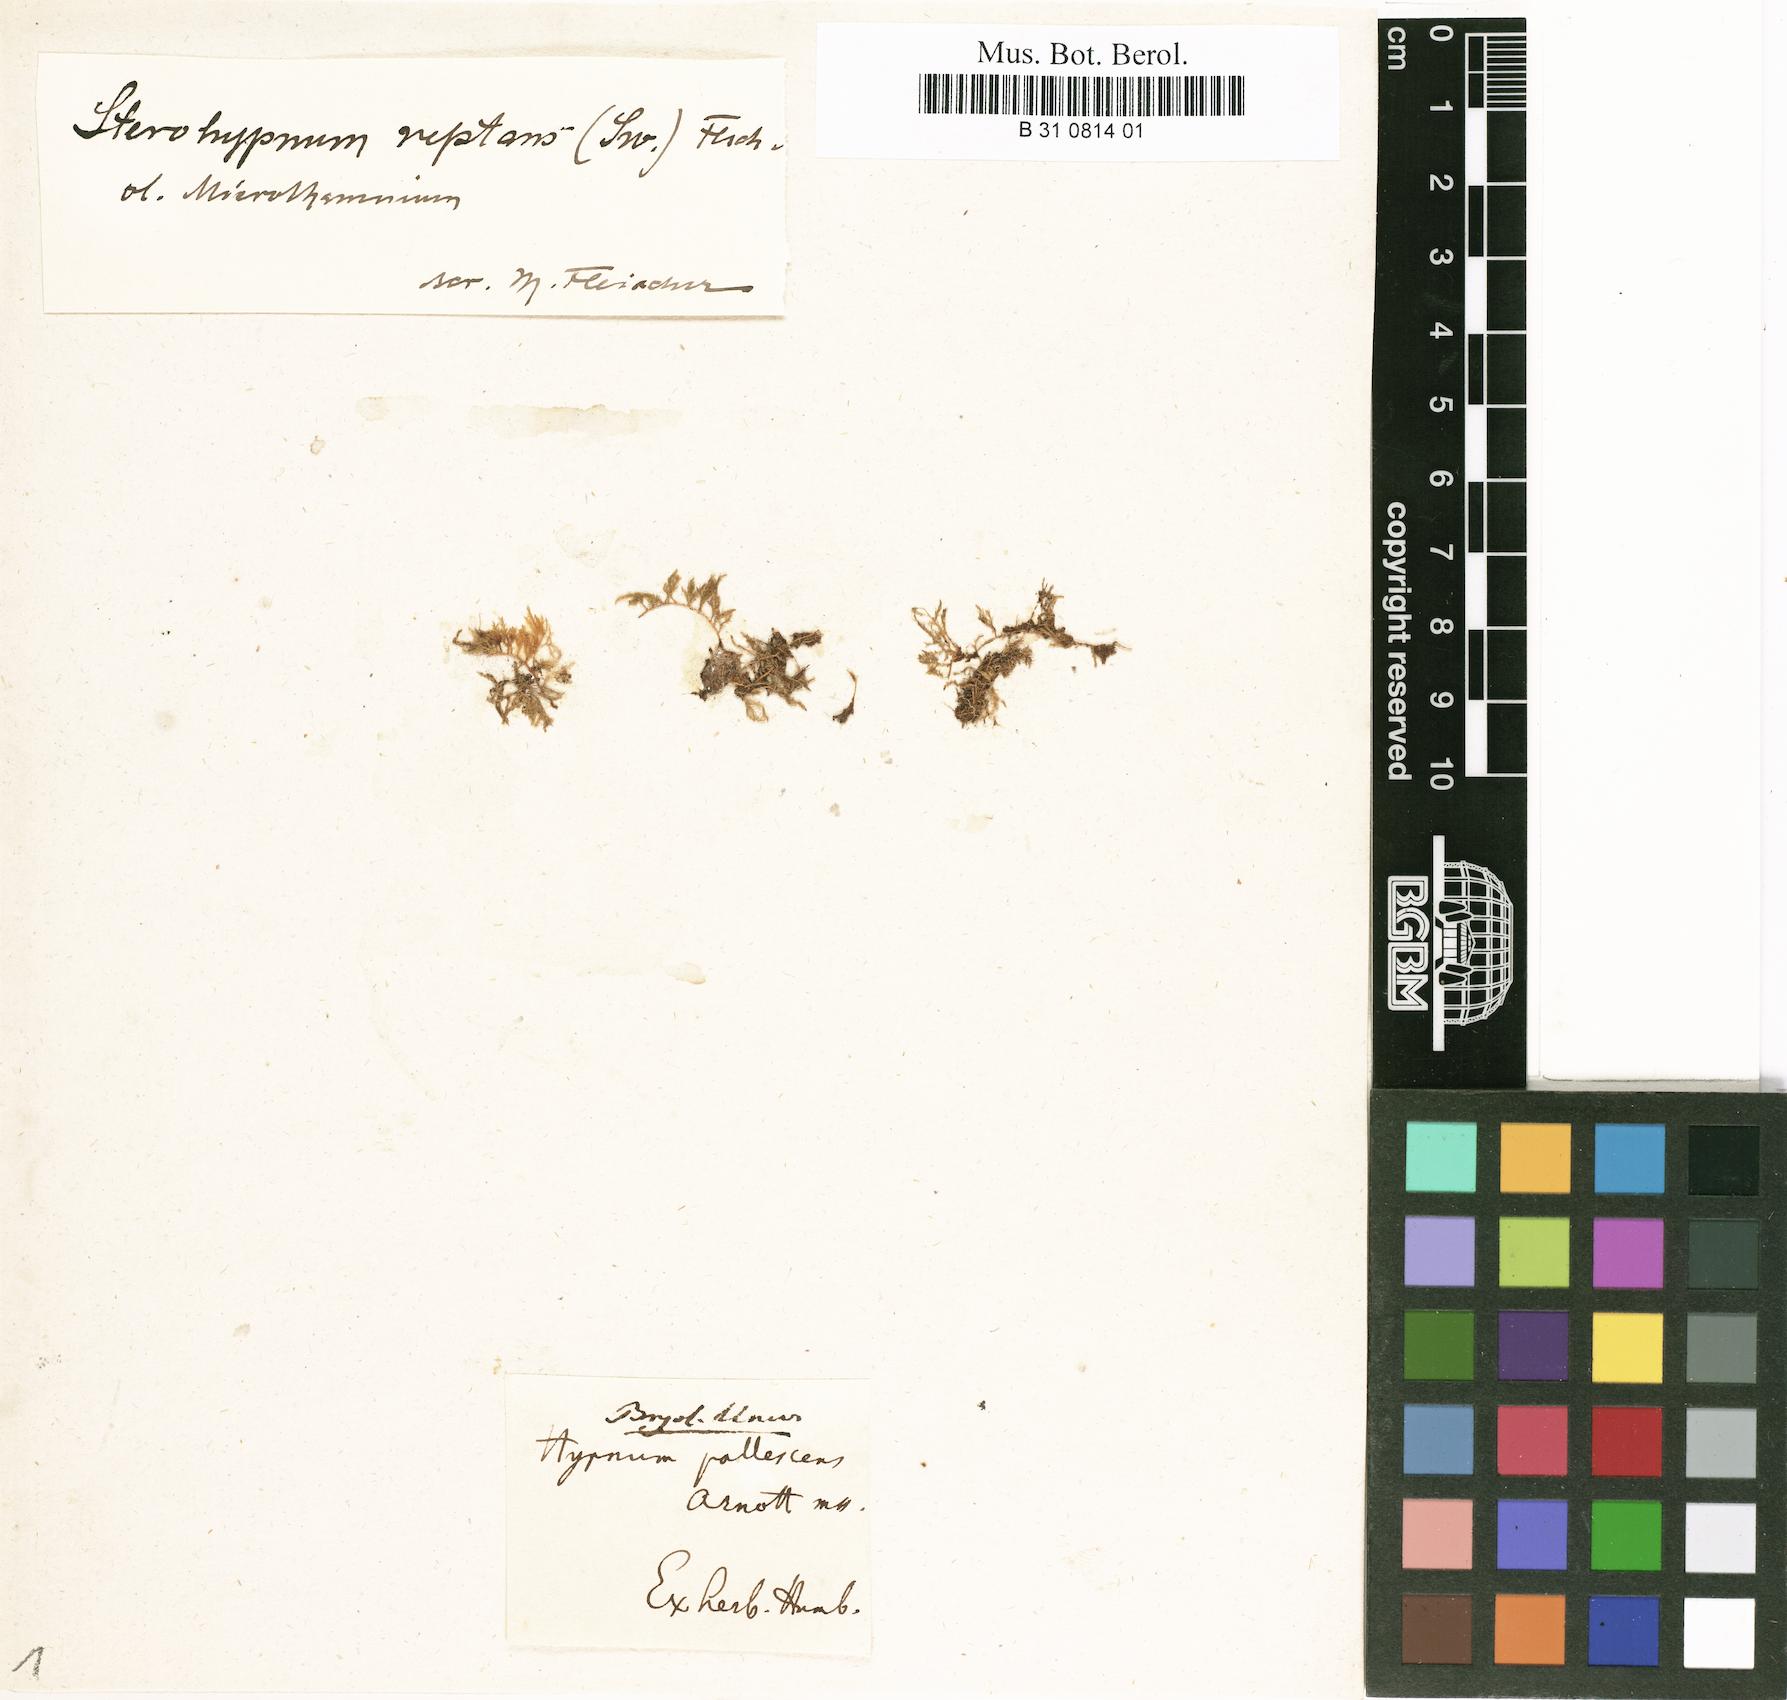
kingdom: Plantae
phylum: Bryophyta
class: Bryopsida
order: Hypnales
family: Hypnaceae
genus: Mittenothamnium
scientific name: Mittenothamnium reptans
